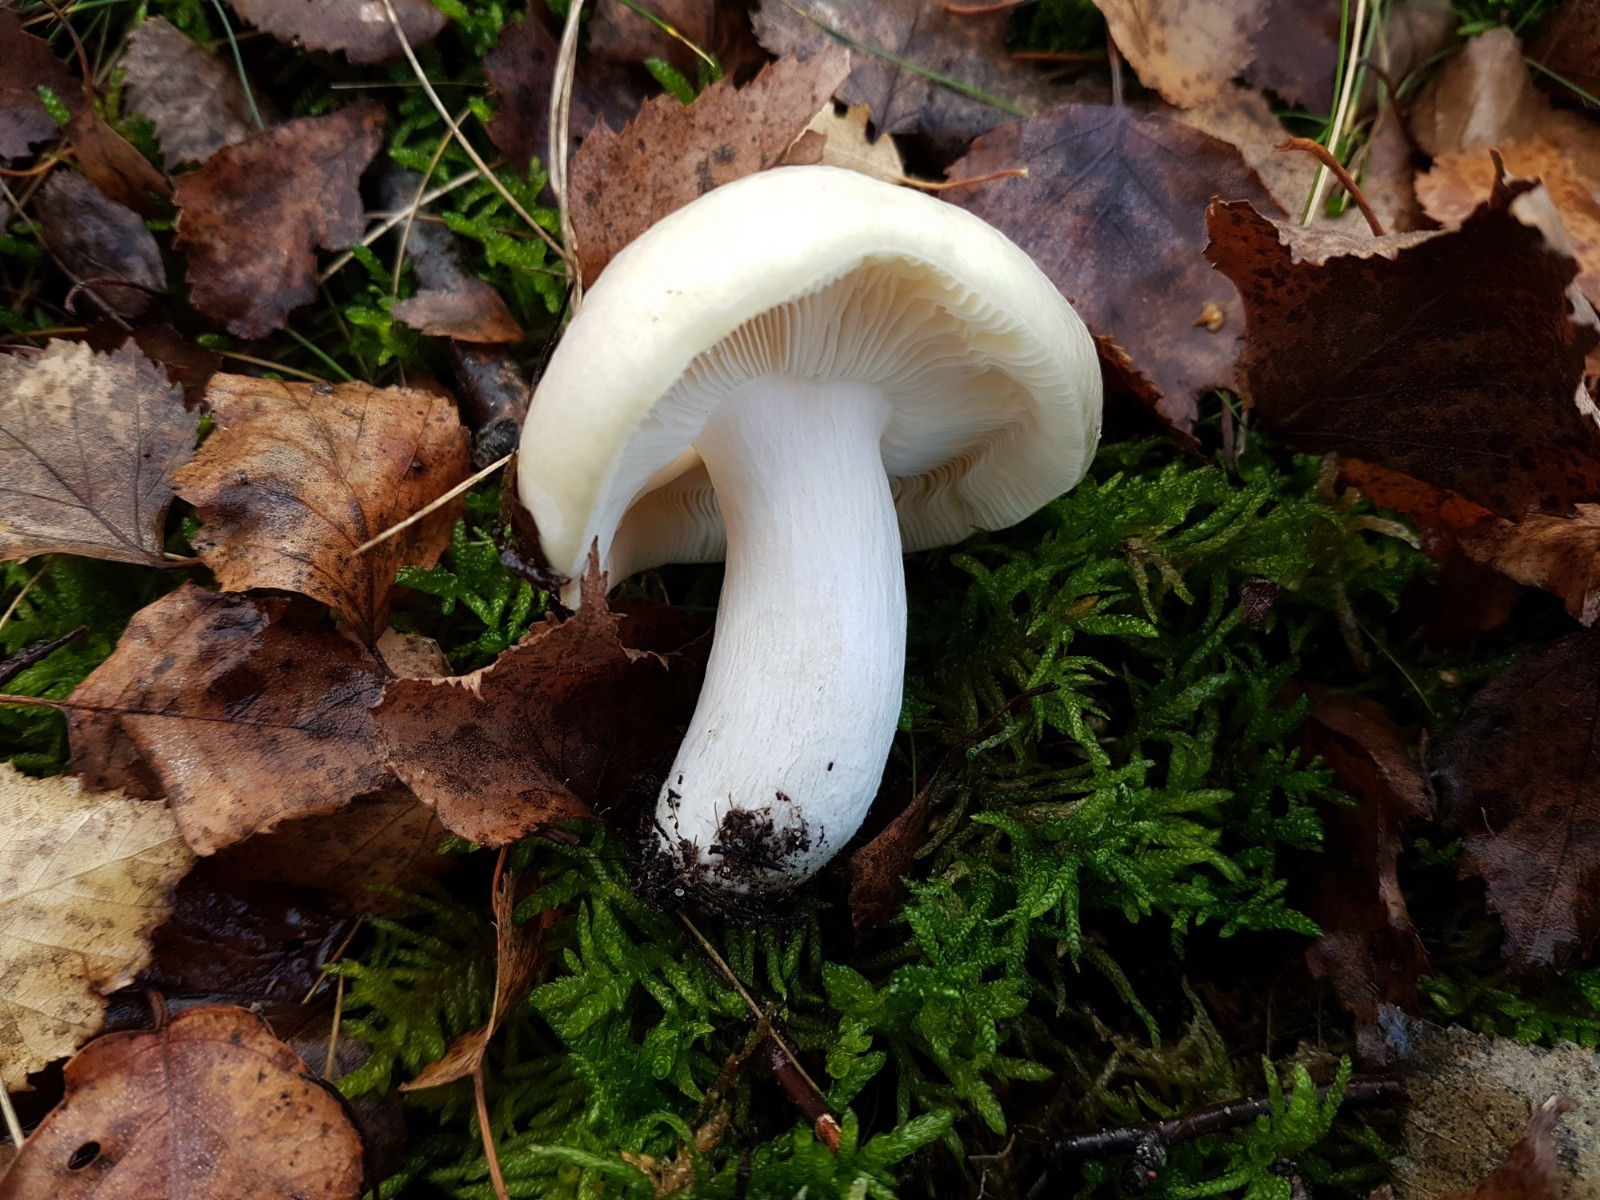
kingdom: Fungi
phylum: Basidiomycota
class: Agaricomycetes
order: Russulales
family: Russulaceae
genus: Russula
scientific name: Russula
